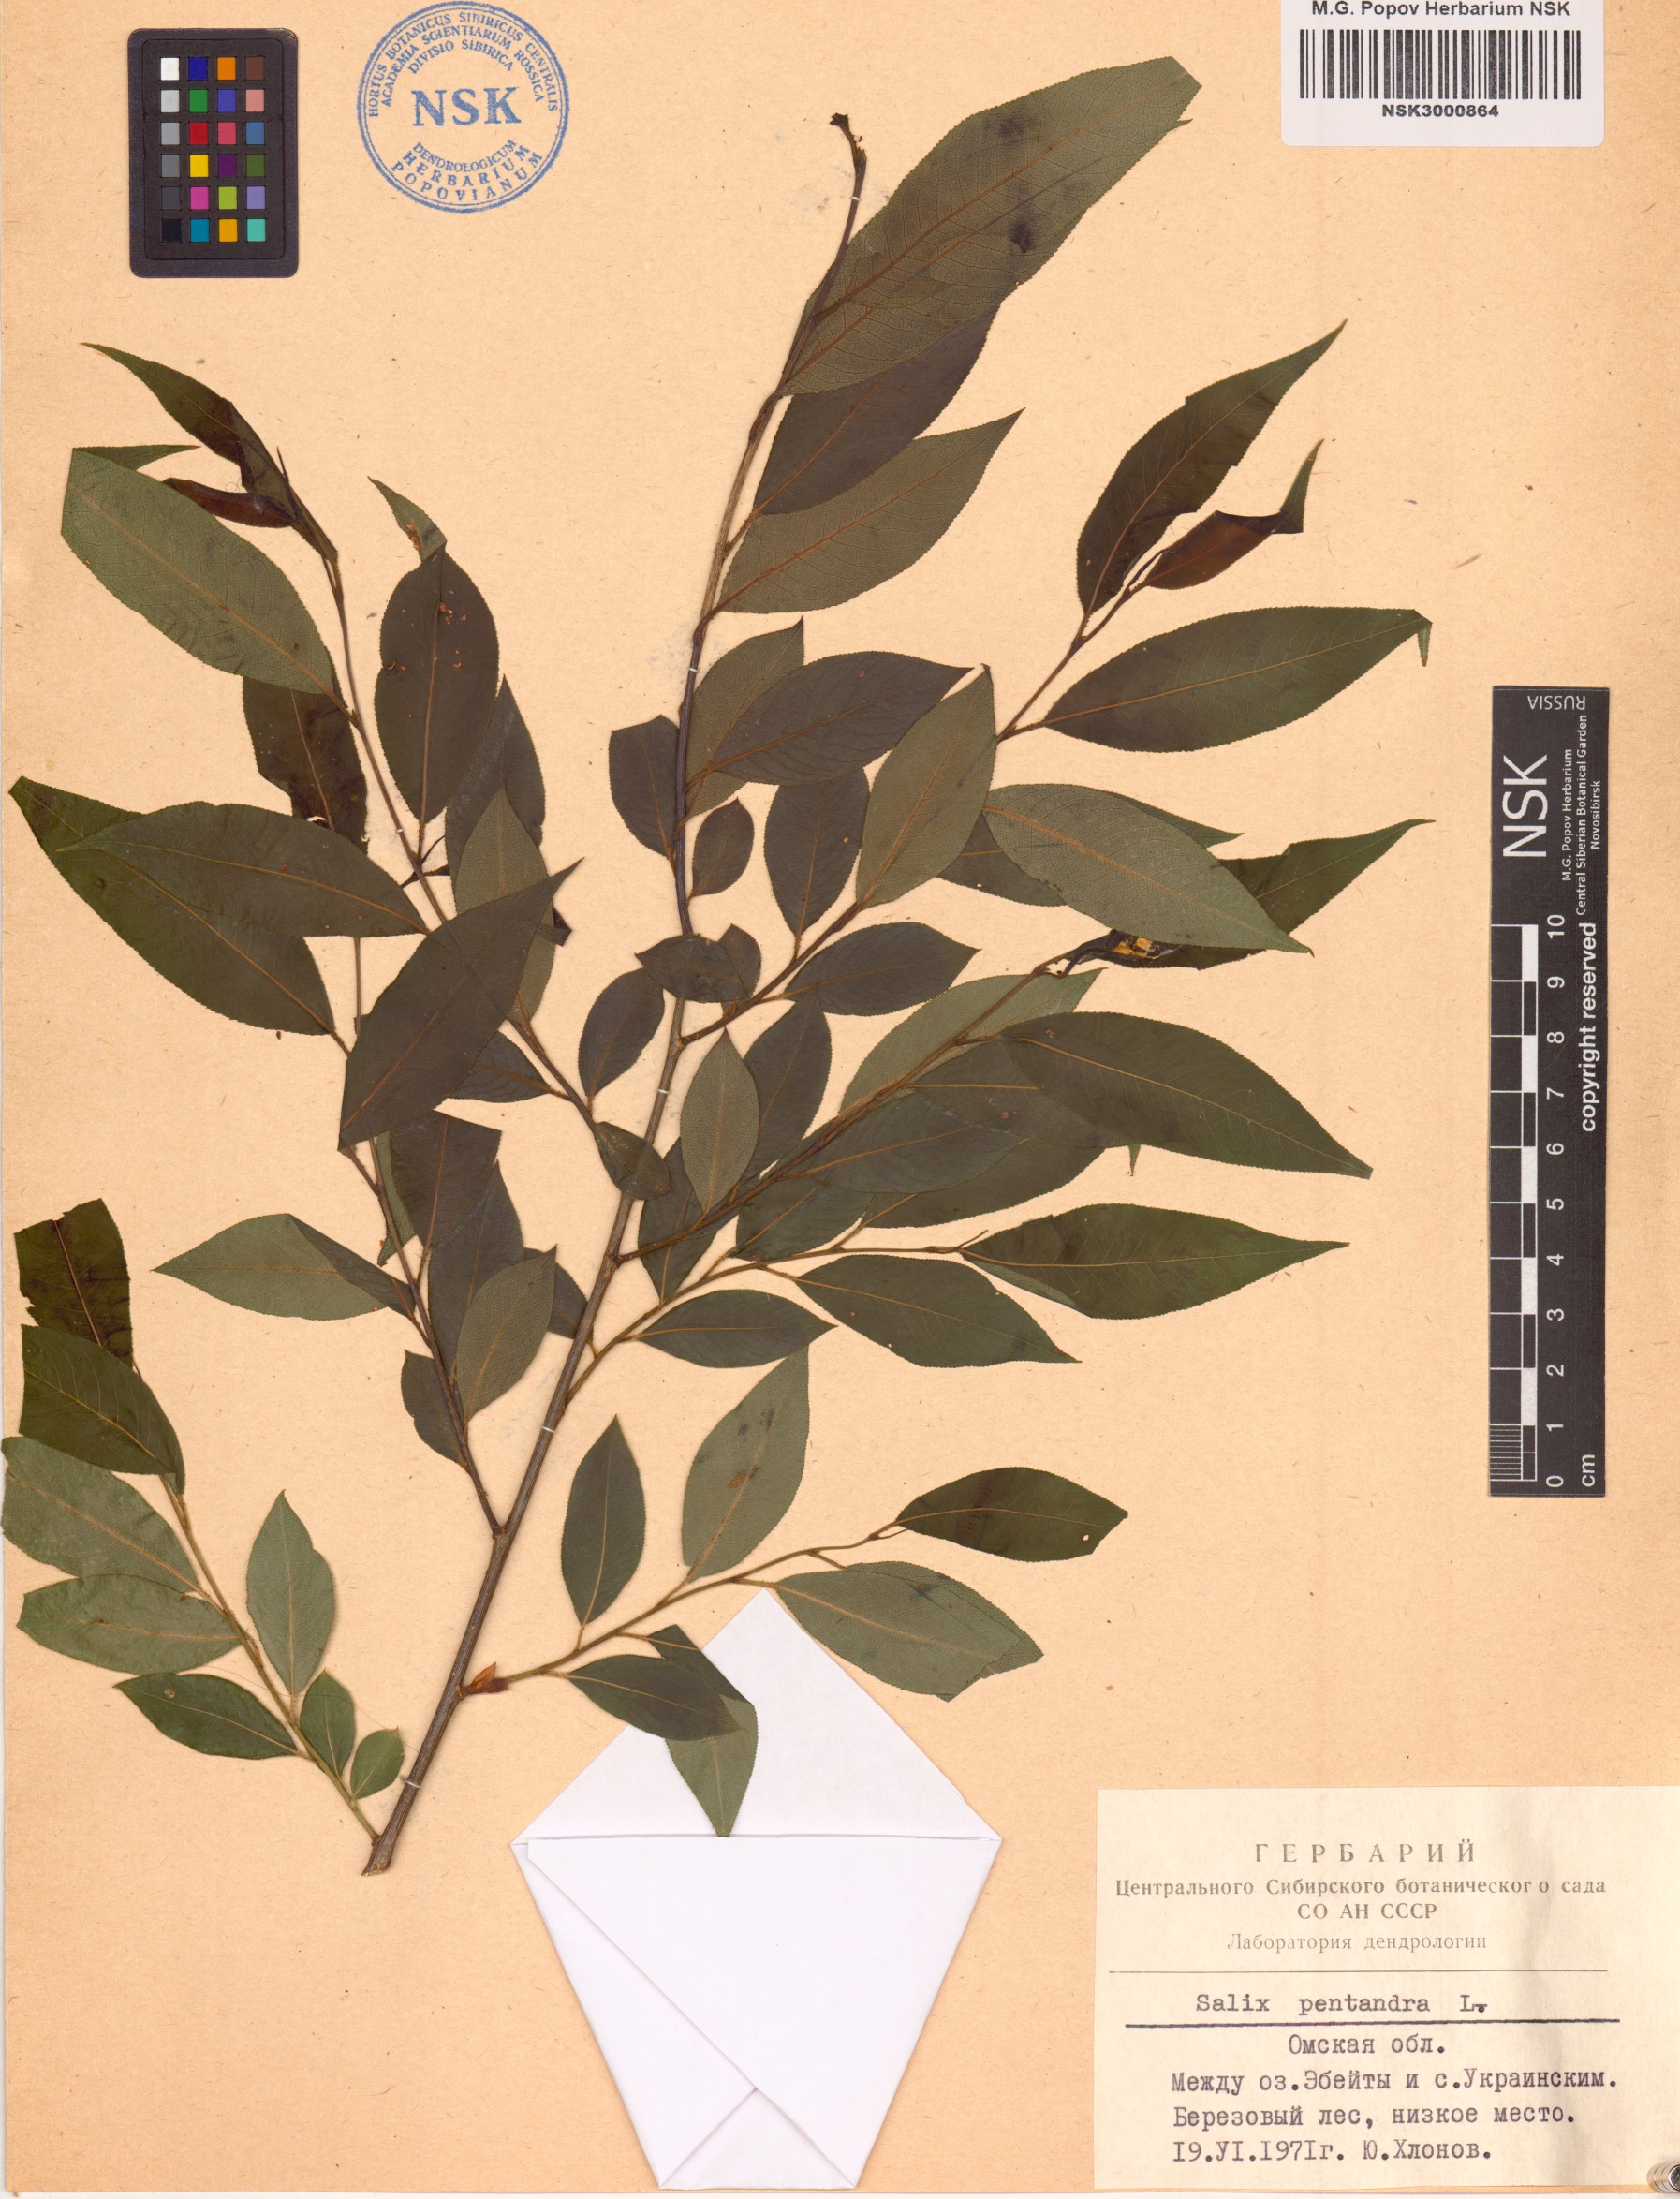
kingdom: Plantae
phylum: Tracheophyta
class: Magnoliopsida
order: Malpighiales
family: Salicaceae
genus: Salix
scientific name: Salix pentandra
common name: Bay willow
